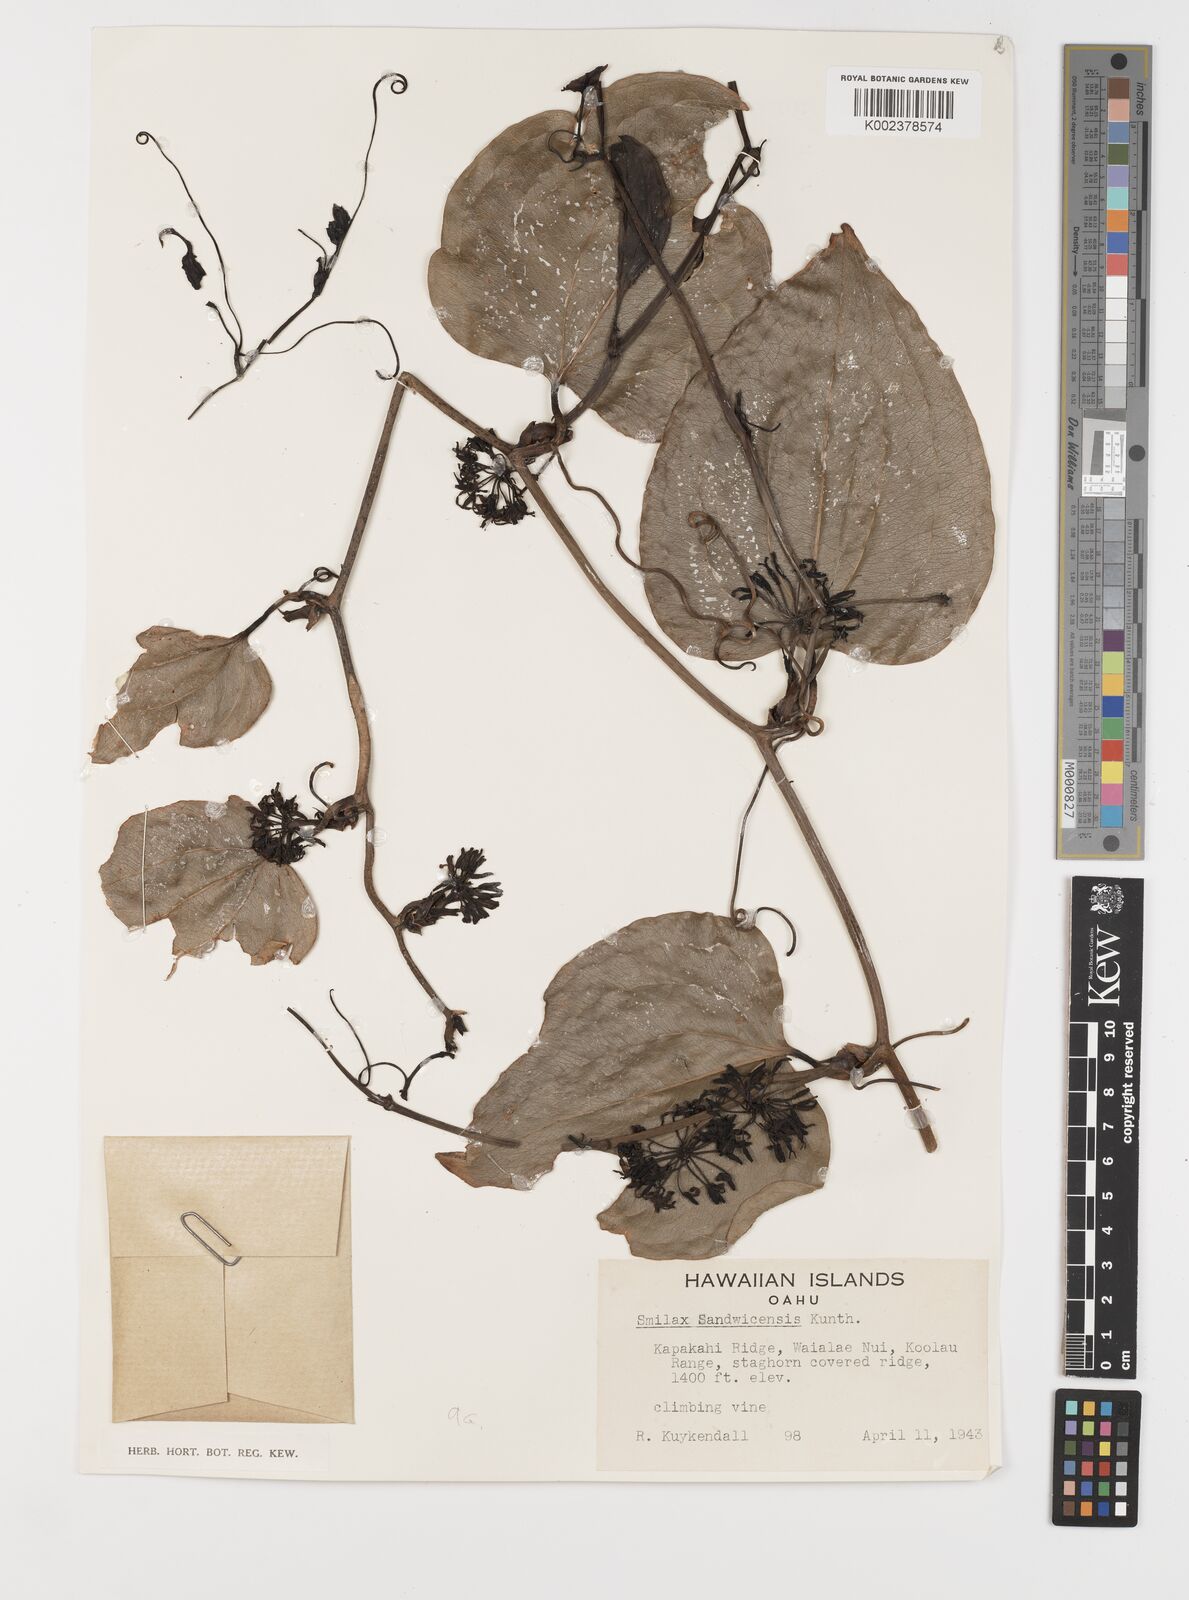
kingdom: Plantae
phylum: Tracheophyta
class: Liliopsida
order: Liliales
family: Smilacaceae
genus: Smilax
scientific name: Smilax melastomifolia
